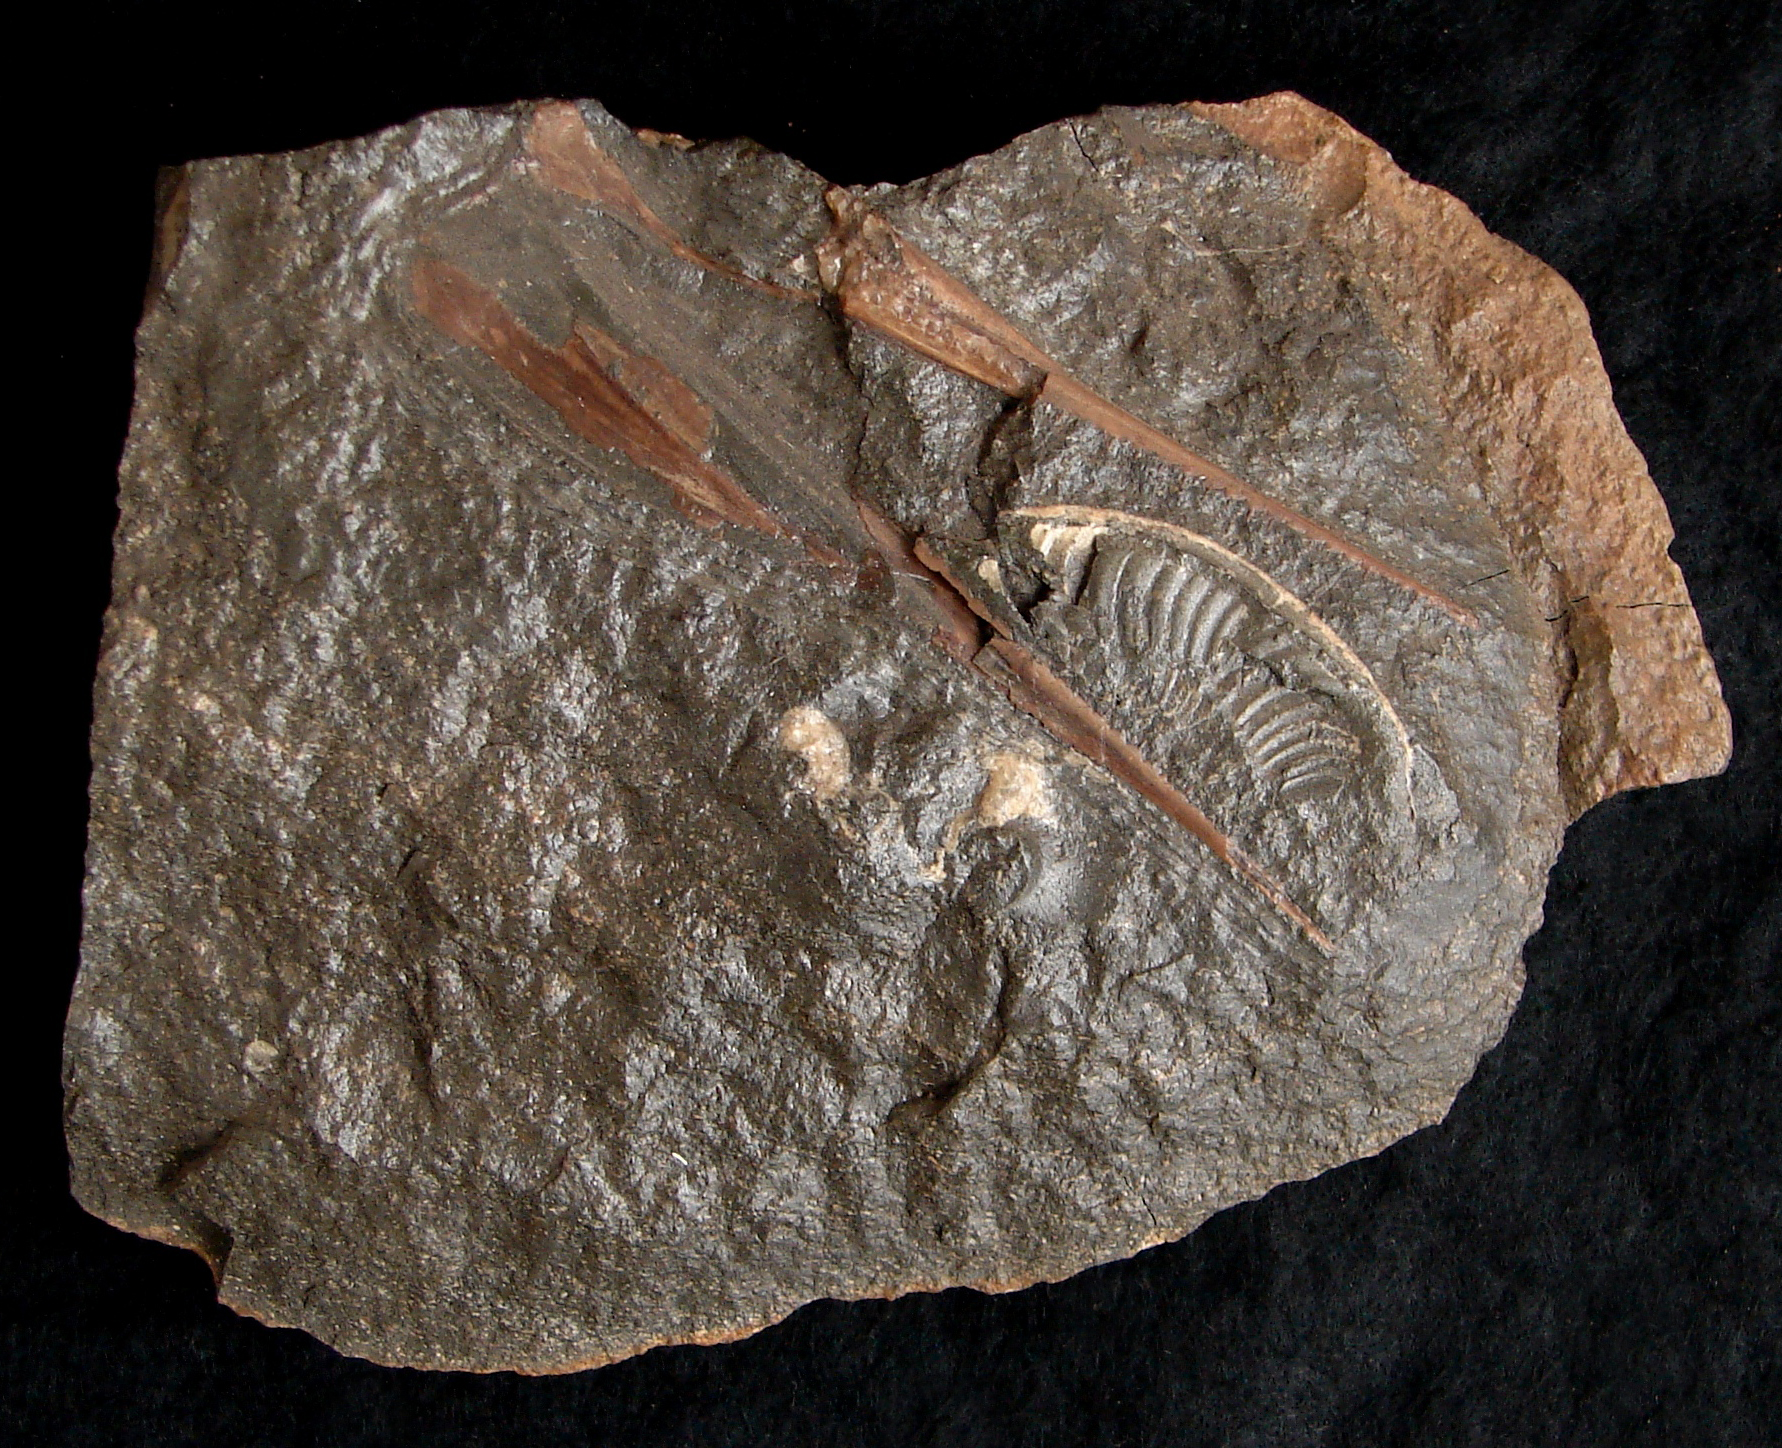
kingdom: Animalia
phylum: Chordata
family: Saurichthyidae
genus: Saurorhynchus
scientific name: Saurorhynchus acutus
